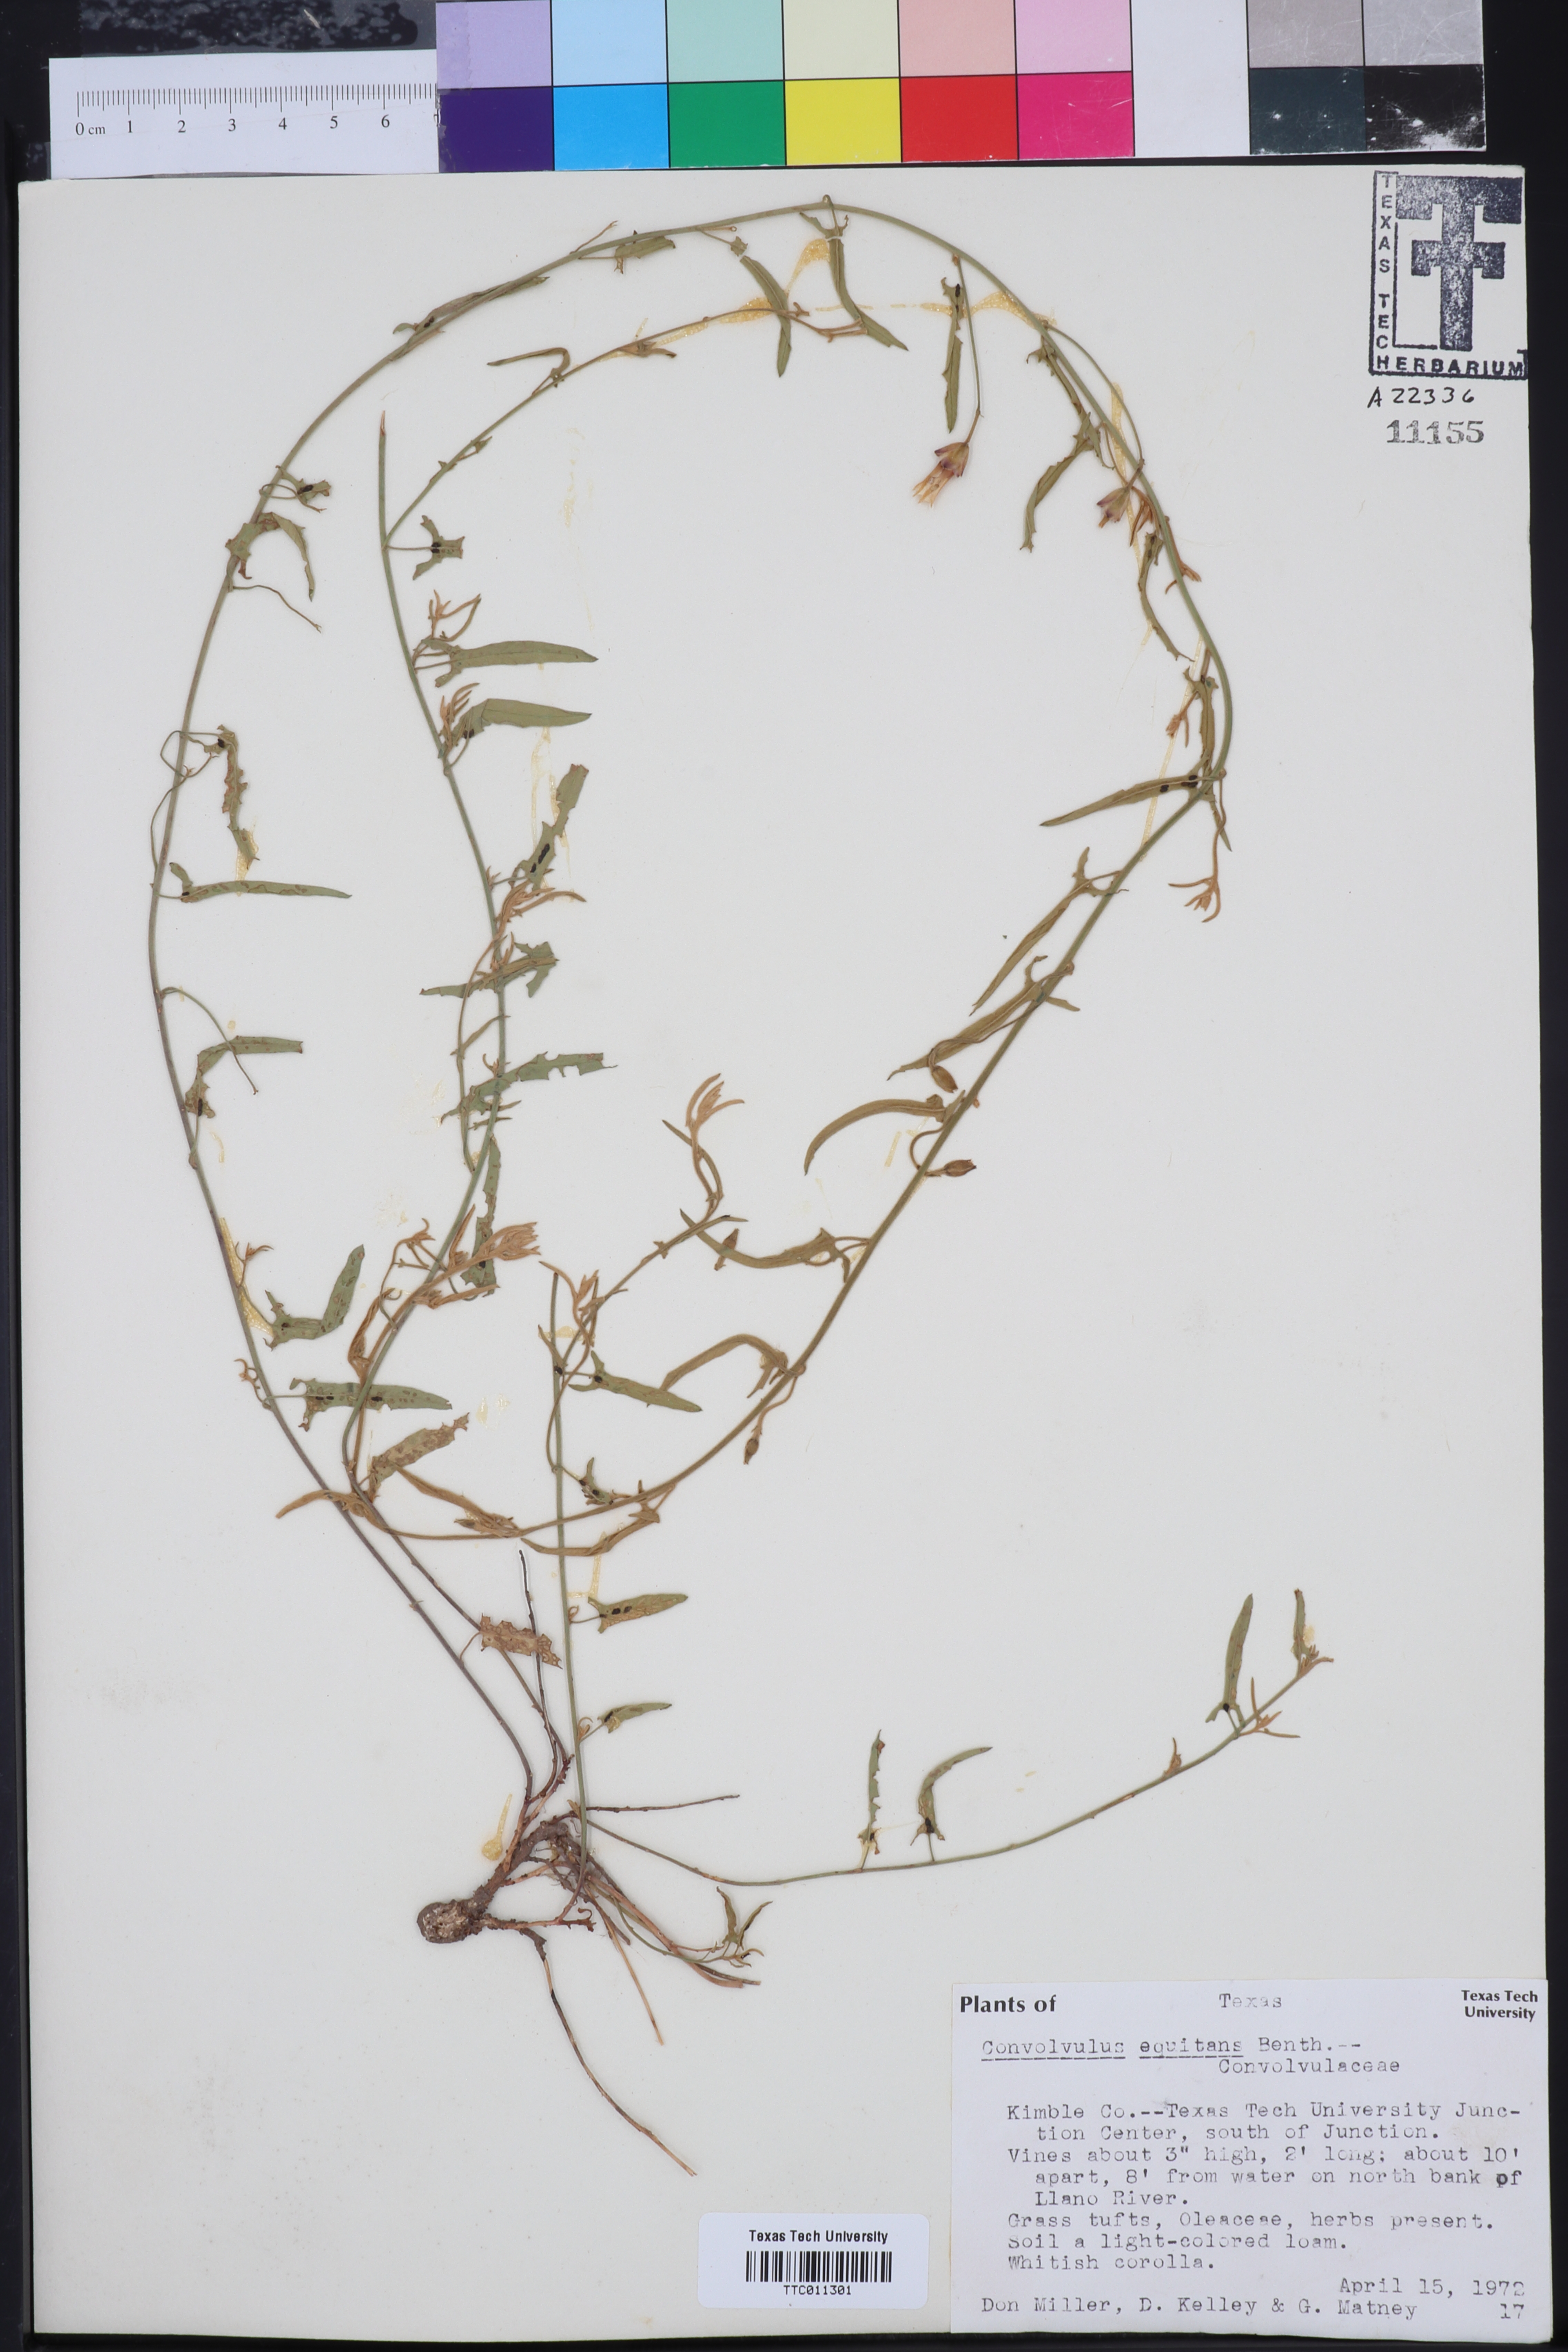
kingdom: Plantae
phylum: Tracheophyta
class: Magnoliopsida
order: Solanales
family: Convolvulaceae
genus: Convolvulus
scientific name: Convolvulus equitans
